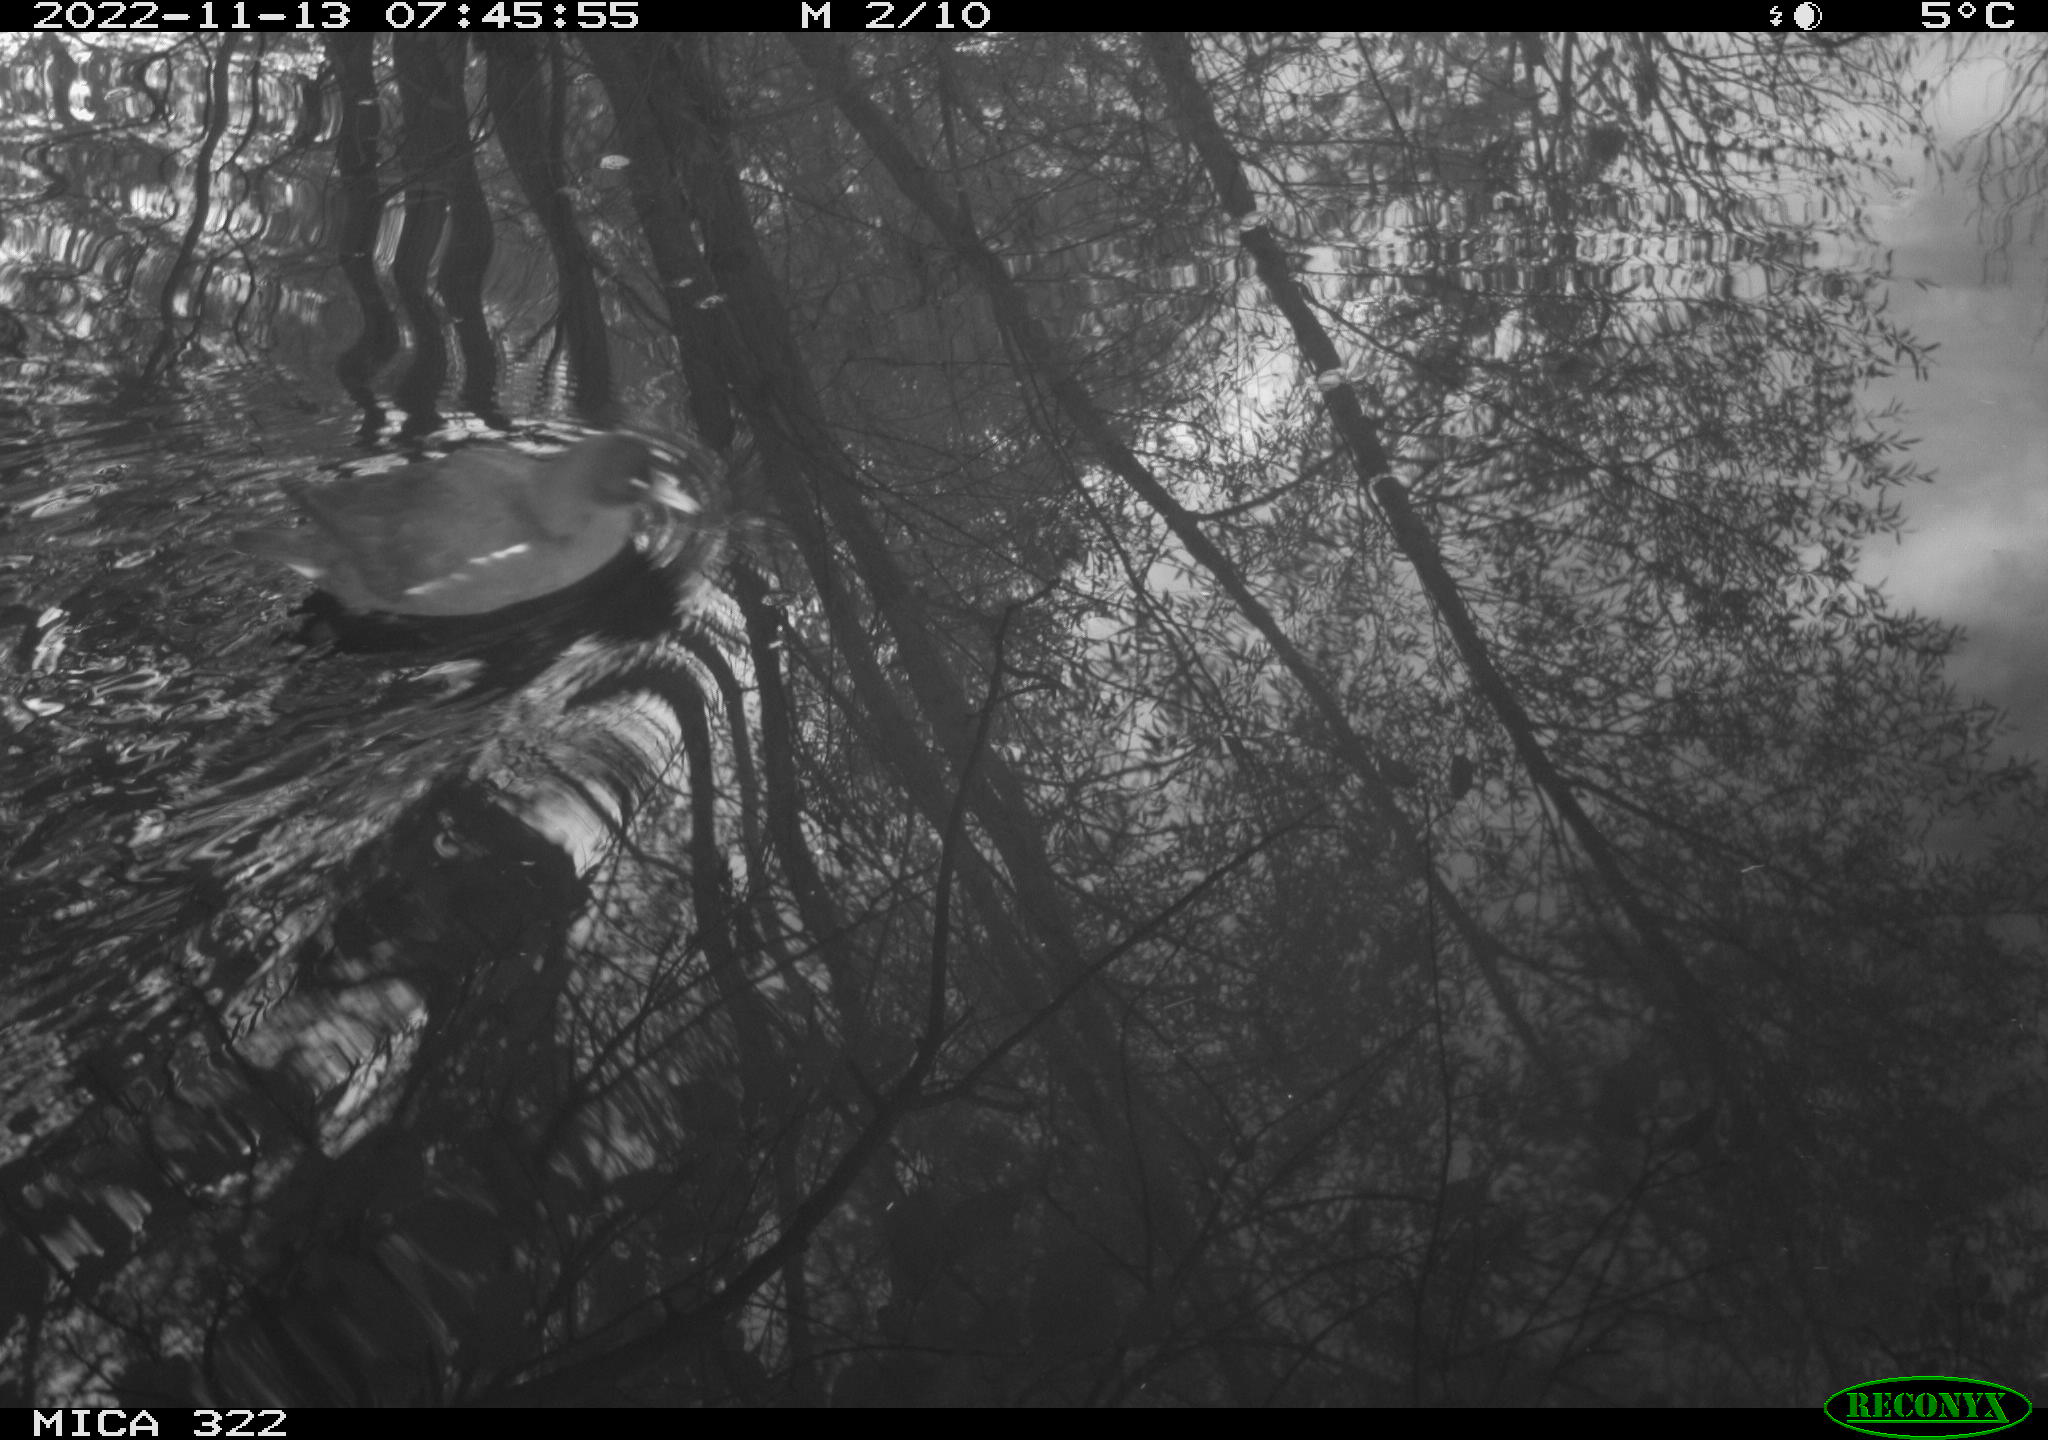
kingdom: Animalia
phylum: Chordata
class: Aves
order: Gruiformes
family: Rallidae
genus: Gallinula
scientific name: Gallinula chloropus
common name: Common moorhen
